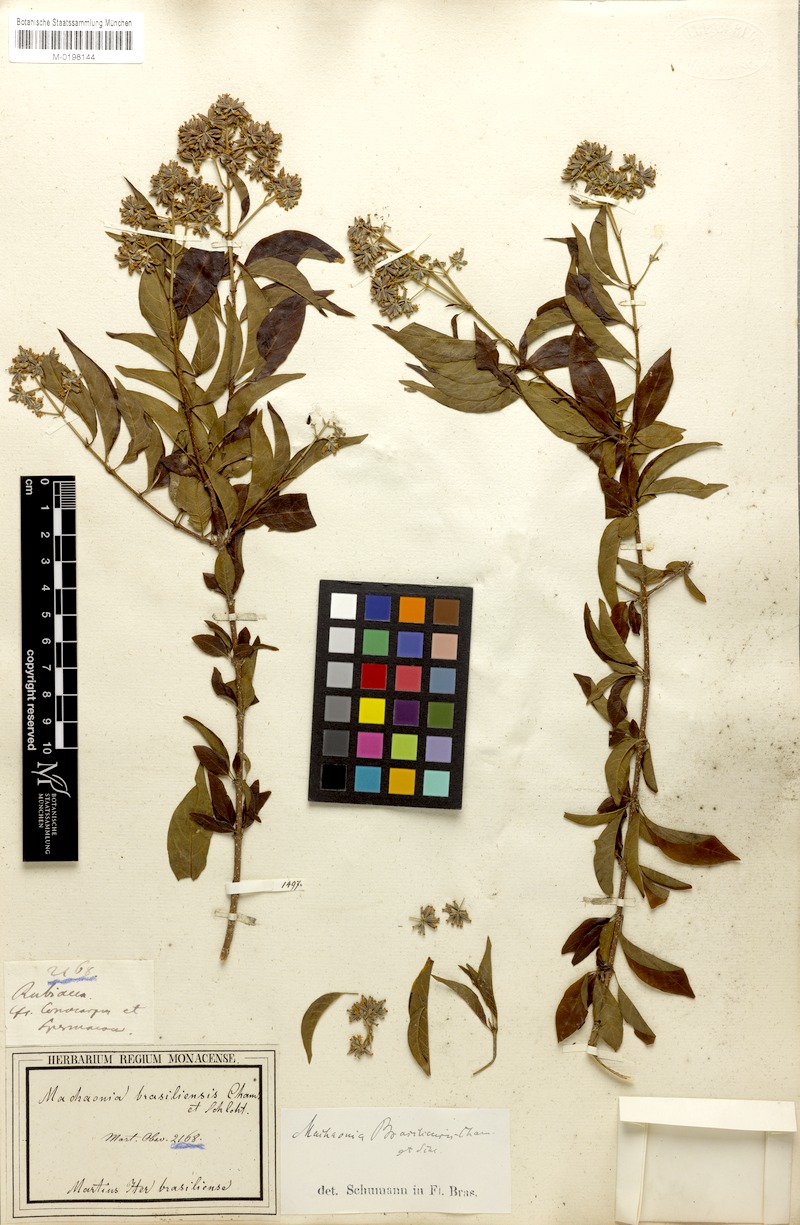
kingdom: Plantae
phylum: Tracheophyta
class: Magnoliopsida
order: Gentianales
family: Rubiaceae
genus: Machaonia
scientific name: Machaonia brasiliensis
